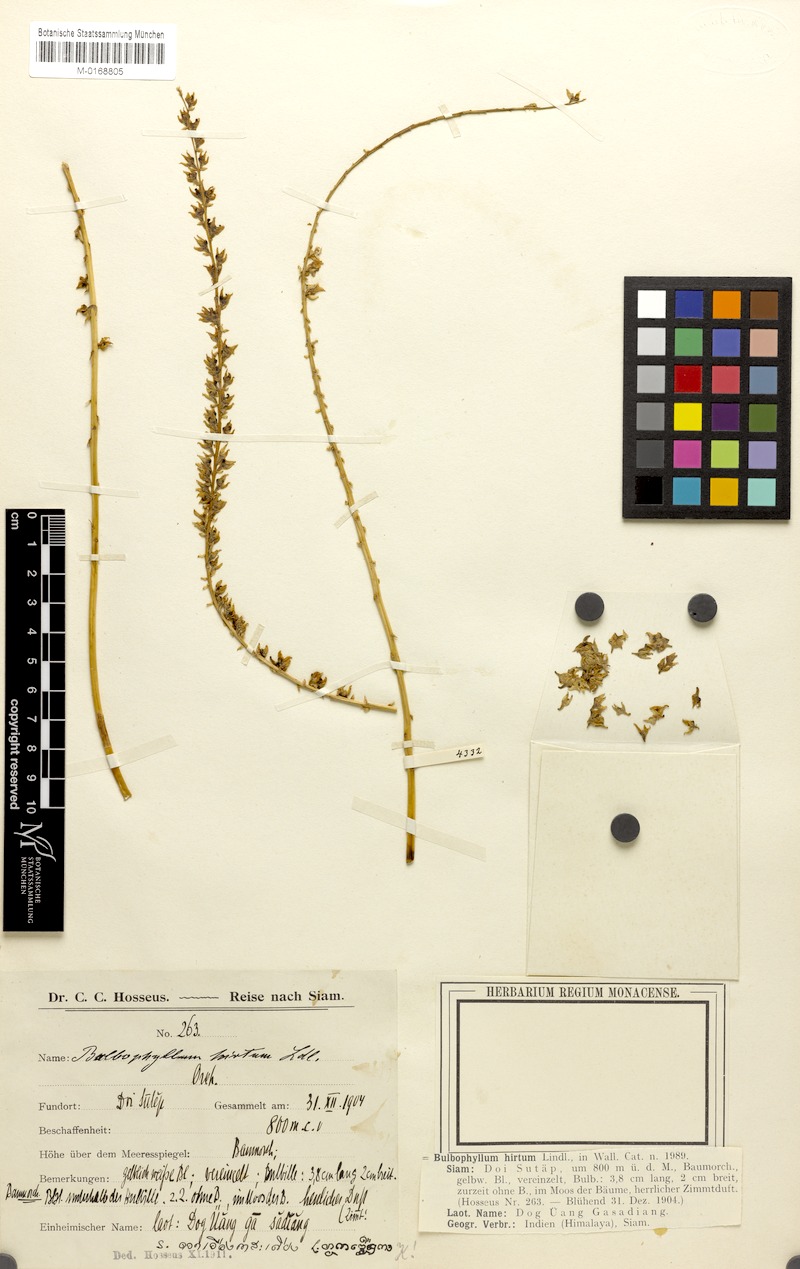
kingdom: Plantae
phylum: Tracheophyta
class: Liliopsida
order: Asparagales
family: Orchidaceae
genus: Bulbophyllum
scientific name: Bulbophyllum hirtum
